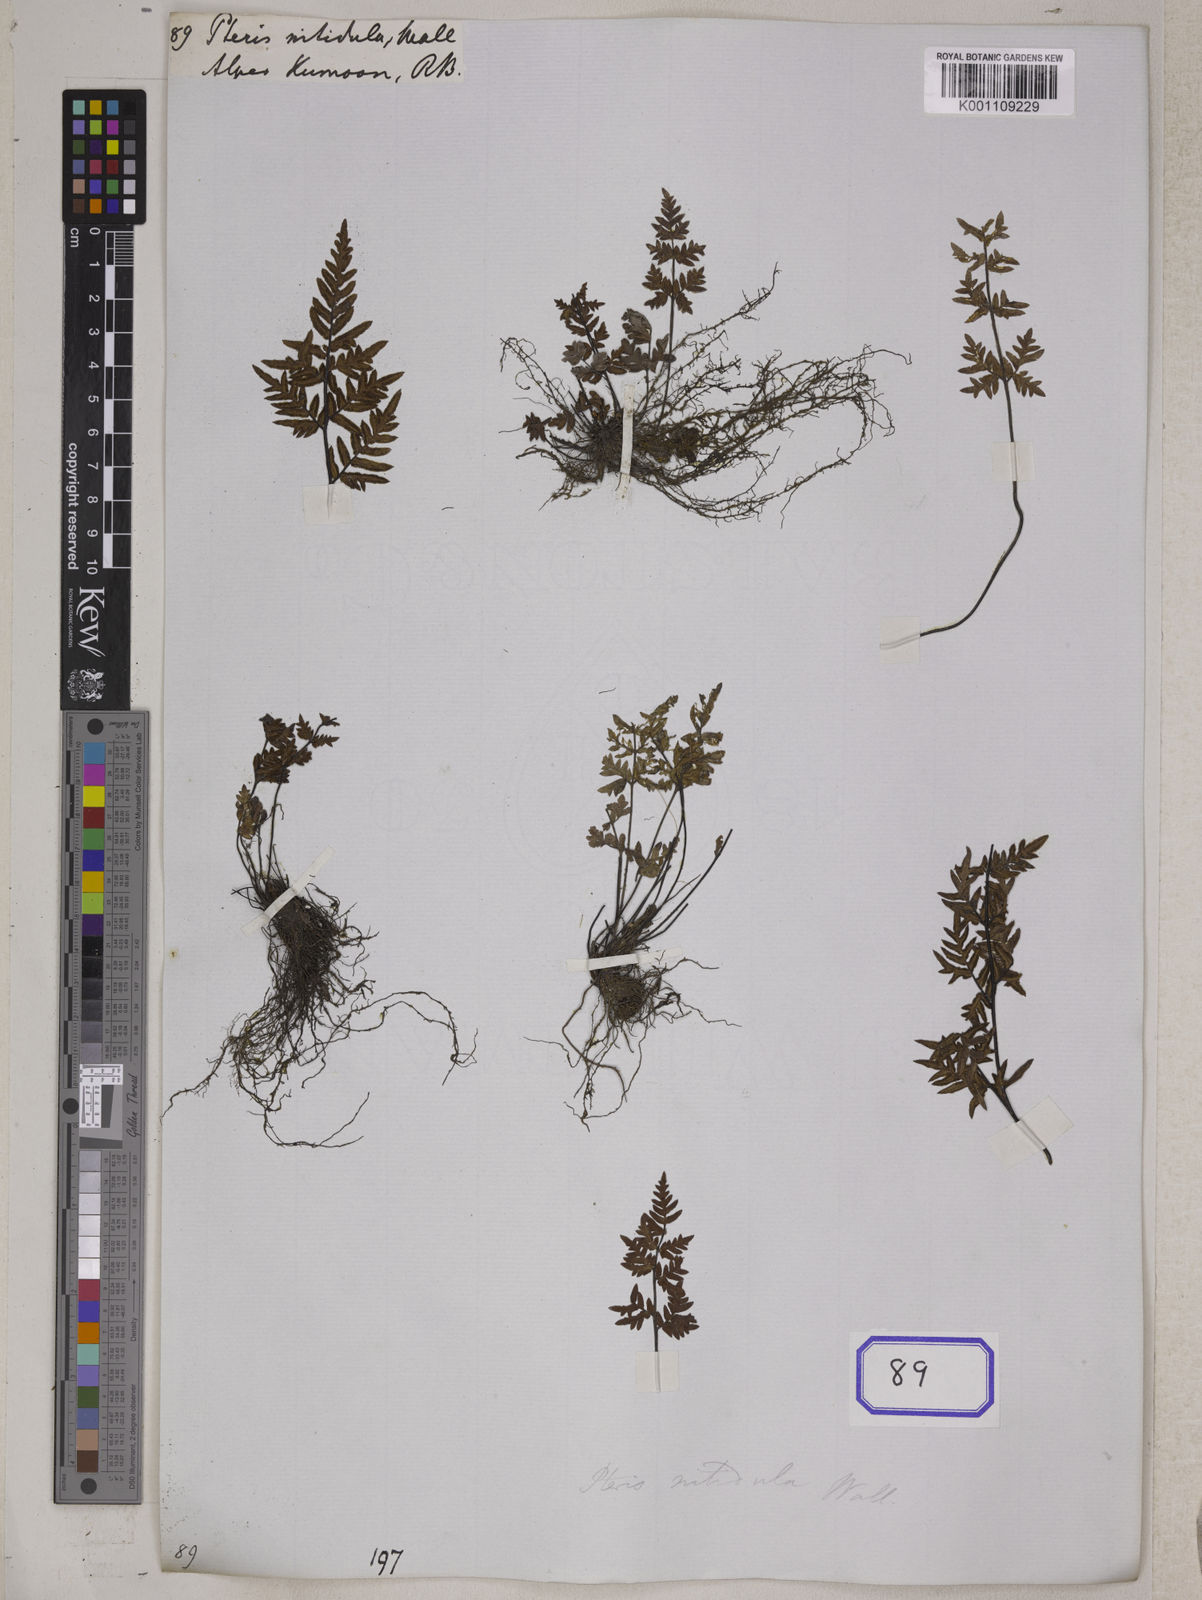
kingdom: Plantae
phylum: Tracheophyta
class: Polypodiopsida
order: Polypodiales
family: Pteridaceae
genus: Mildella
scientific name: Mildella nitidula
